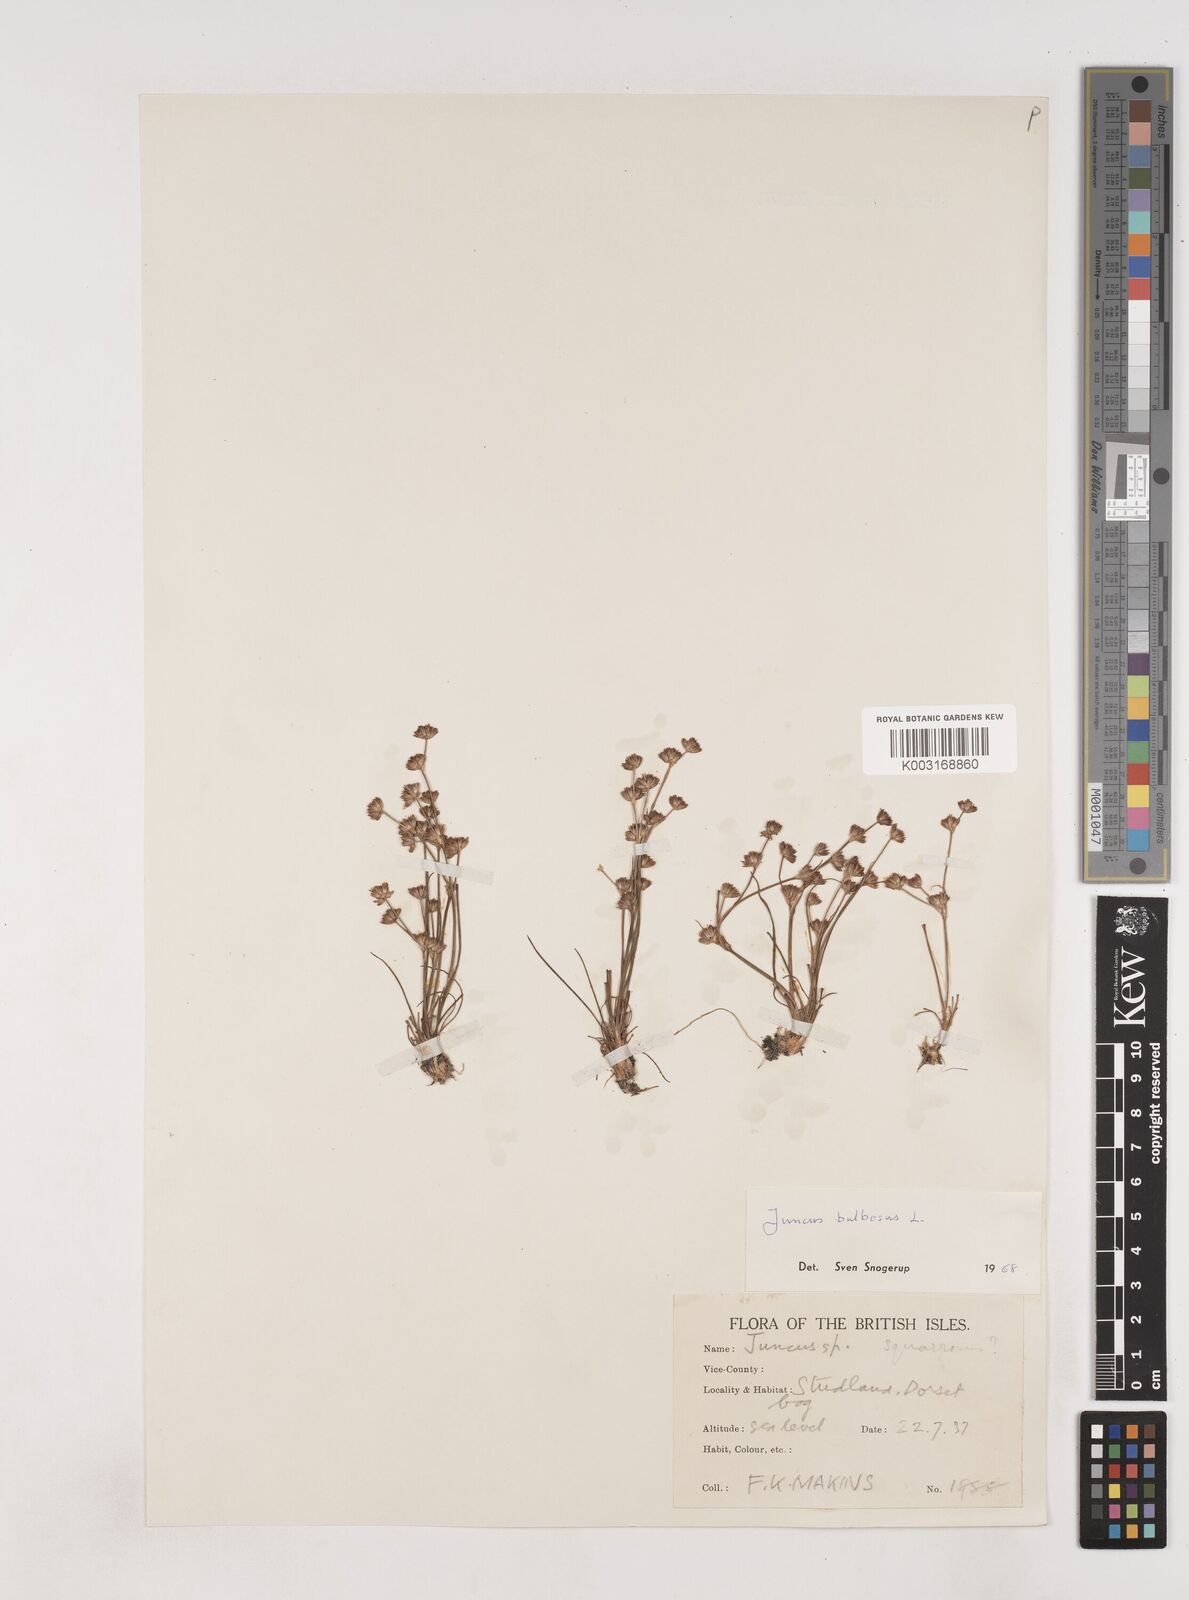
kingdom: Plantae
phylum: Tracheophyta
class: Liliopsida
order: Poales
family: Juncaceae
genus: Juncus
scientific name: Juncus bulbosus
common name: Bulbous rush
